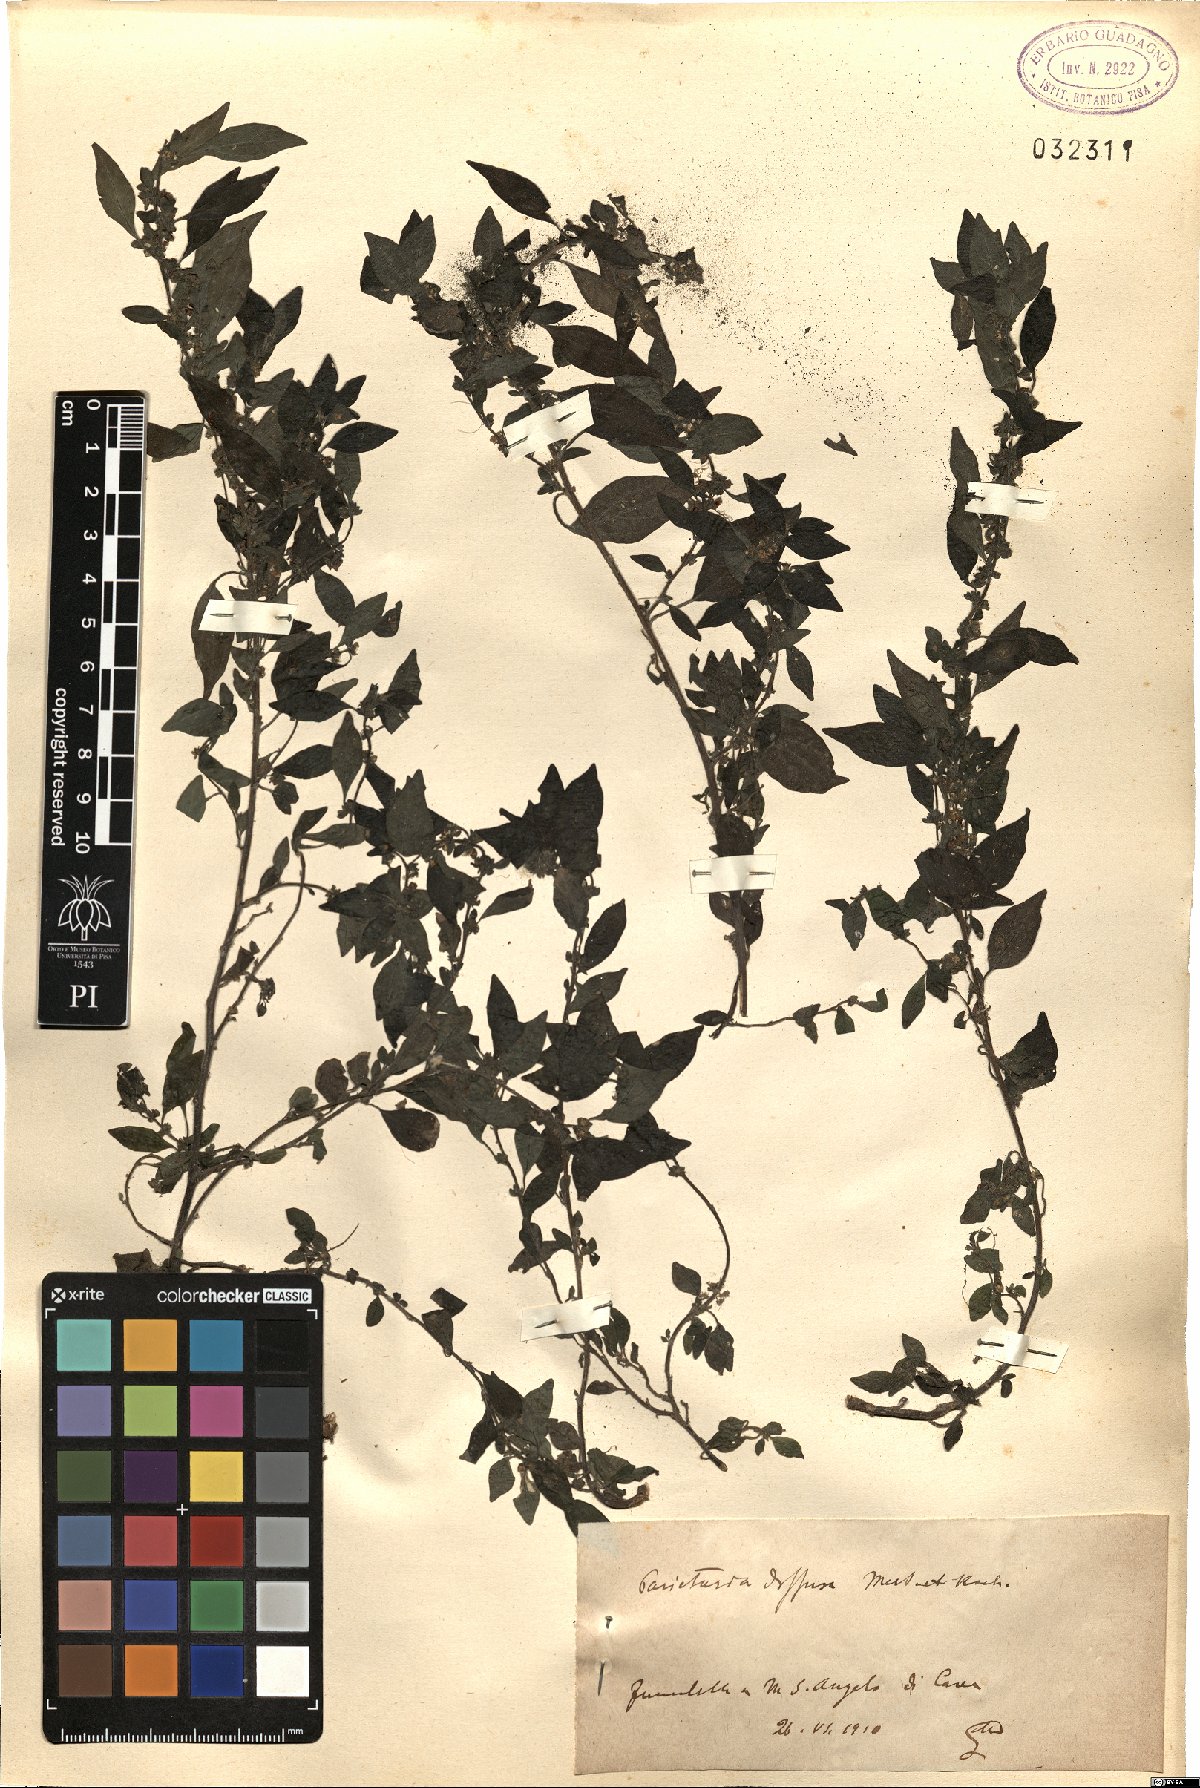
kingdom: Plantae
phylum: Tracheophyta
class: Magnoliopsida
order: Rosales
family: Urticaceae
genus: Parietaria
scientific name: Parietaria judaica
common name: Pellitory-of-the-wall
